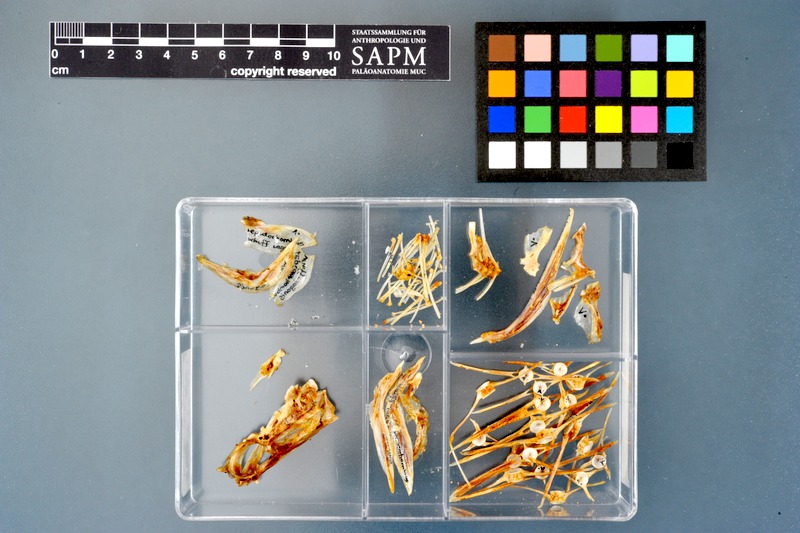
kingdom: Animalia
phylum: Chordata
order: Pleuronectiformes
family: Scophthalmidae
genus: Lepidorhombus
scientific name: Lepidorhombus whiffiagonis
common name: Megrim
